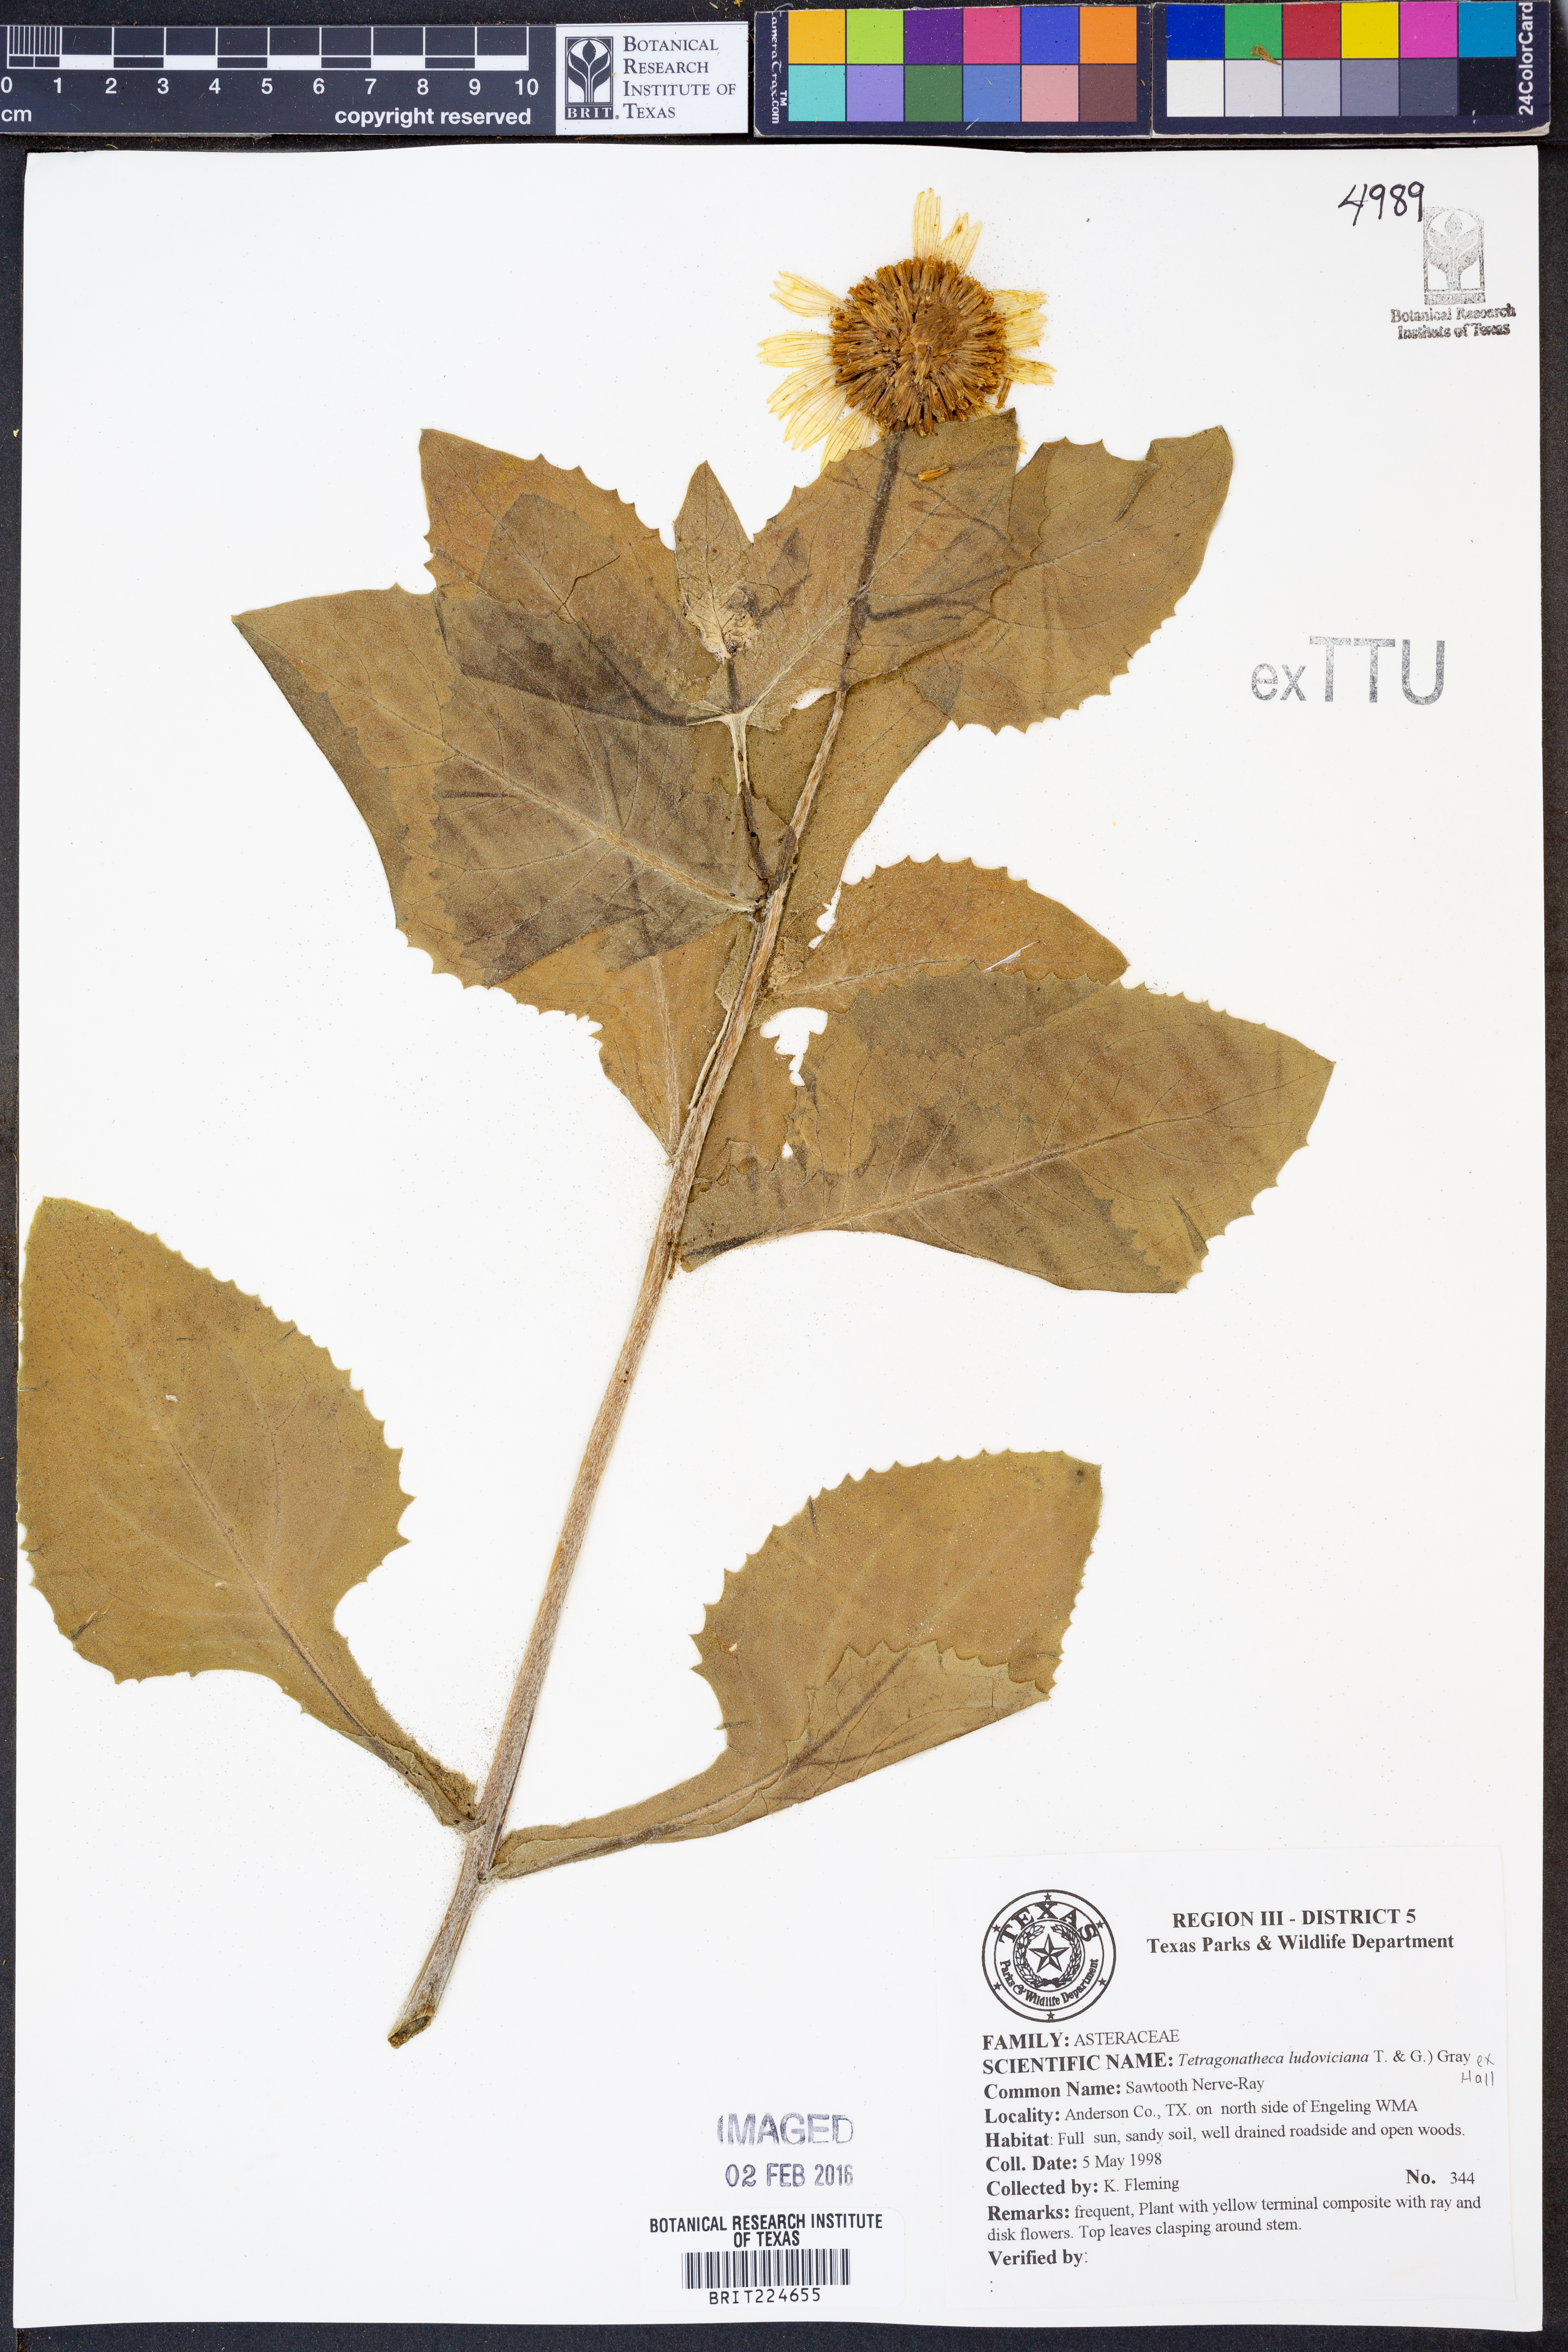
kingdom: Plantae
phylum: Tracheophyta
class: Magnoliopsida
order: Asterales
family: Asteraceae
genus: Tetragonotheca
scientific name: Tetragonotheca ludoviciana
